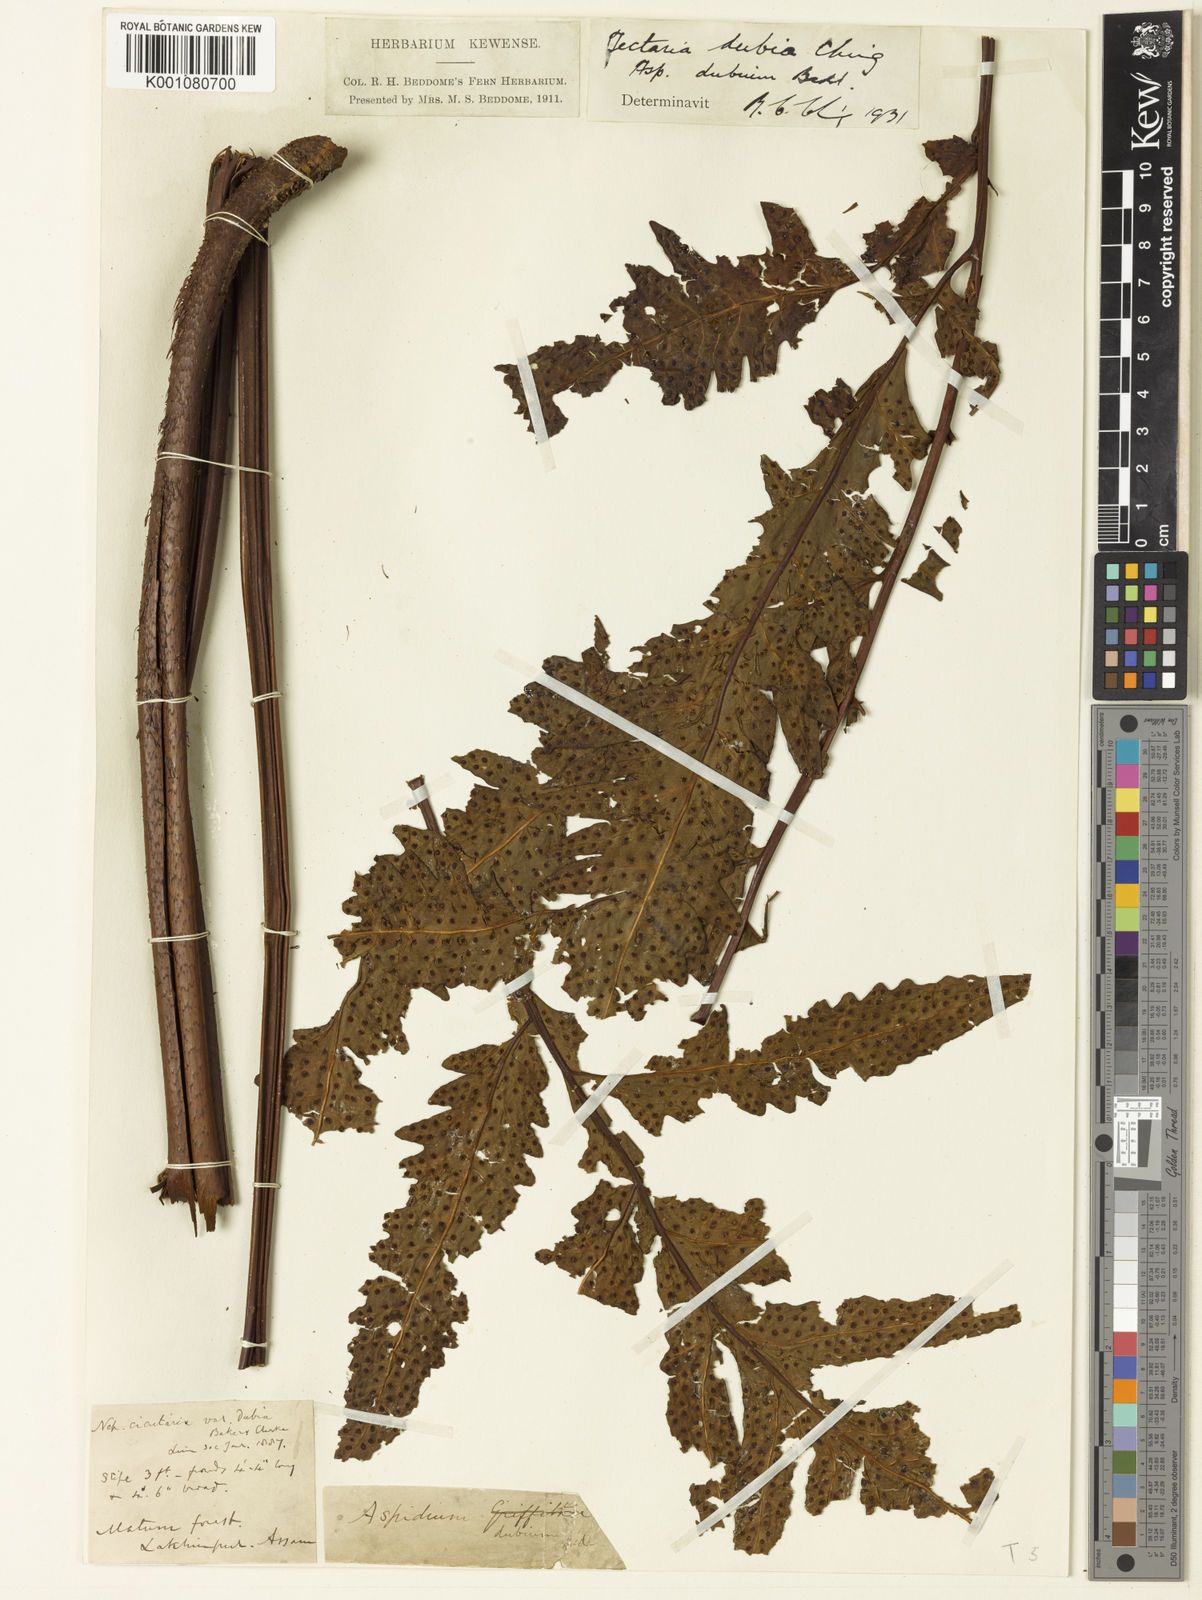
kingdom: Plantae
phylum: Tracheophyta
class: Polypodiopsida
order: Polypodiales
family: Tectariaceae
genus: Tectaria
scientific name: Tectaria dubia
